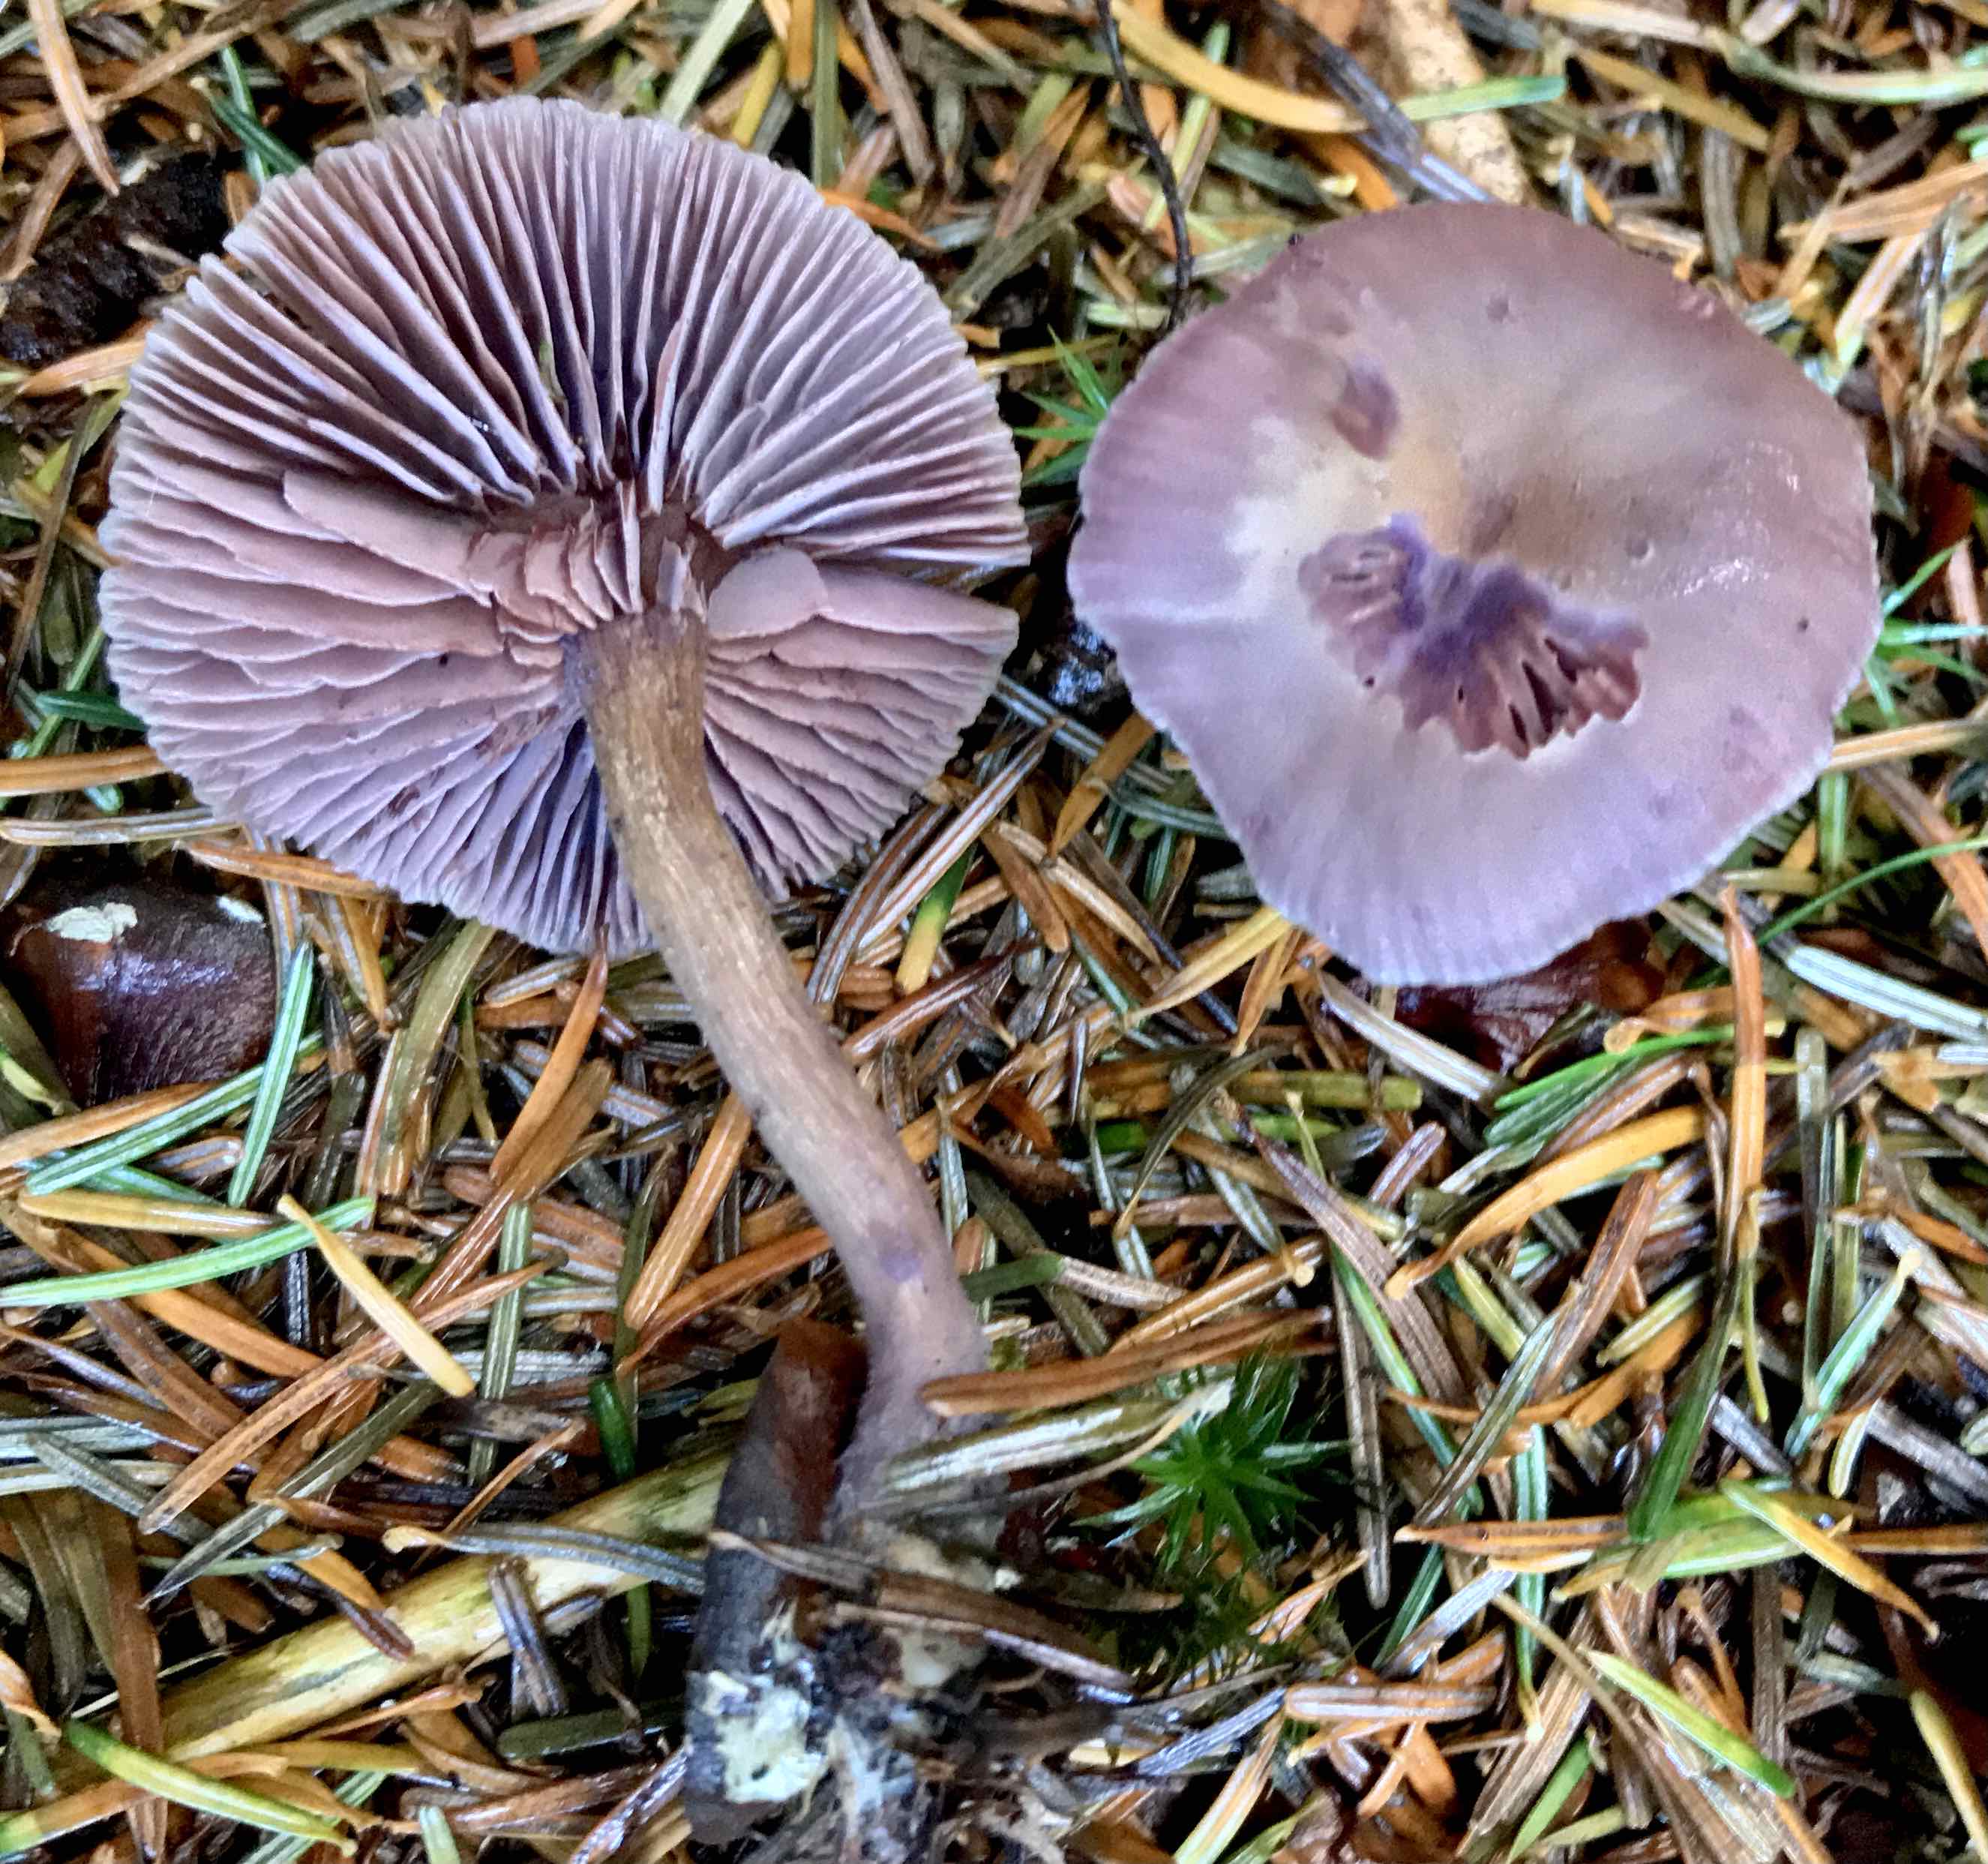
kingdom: Fungi
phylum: Basidiomycota
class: Agaricomycetes
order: Agaricales
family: Hydnangiaceae
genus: Laccaria
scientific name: Laccaria amethystina
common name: violet ametysthat
